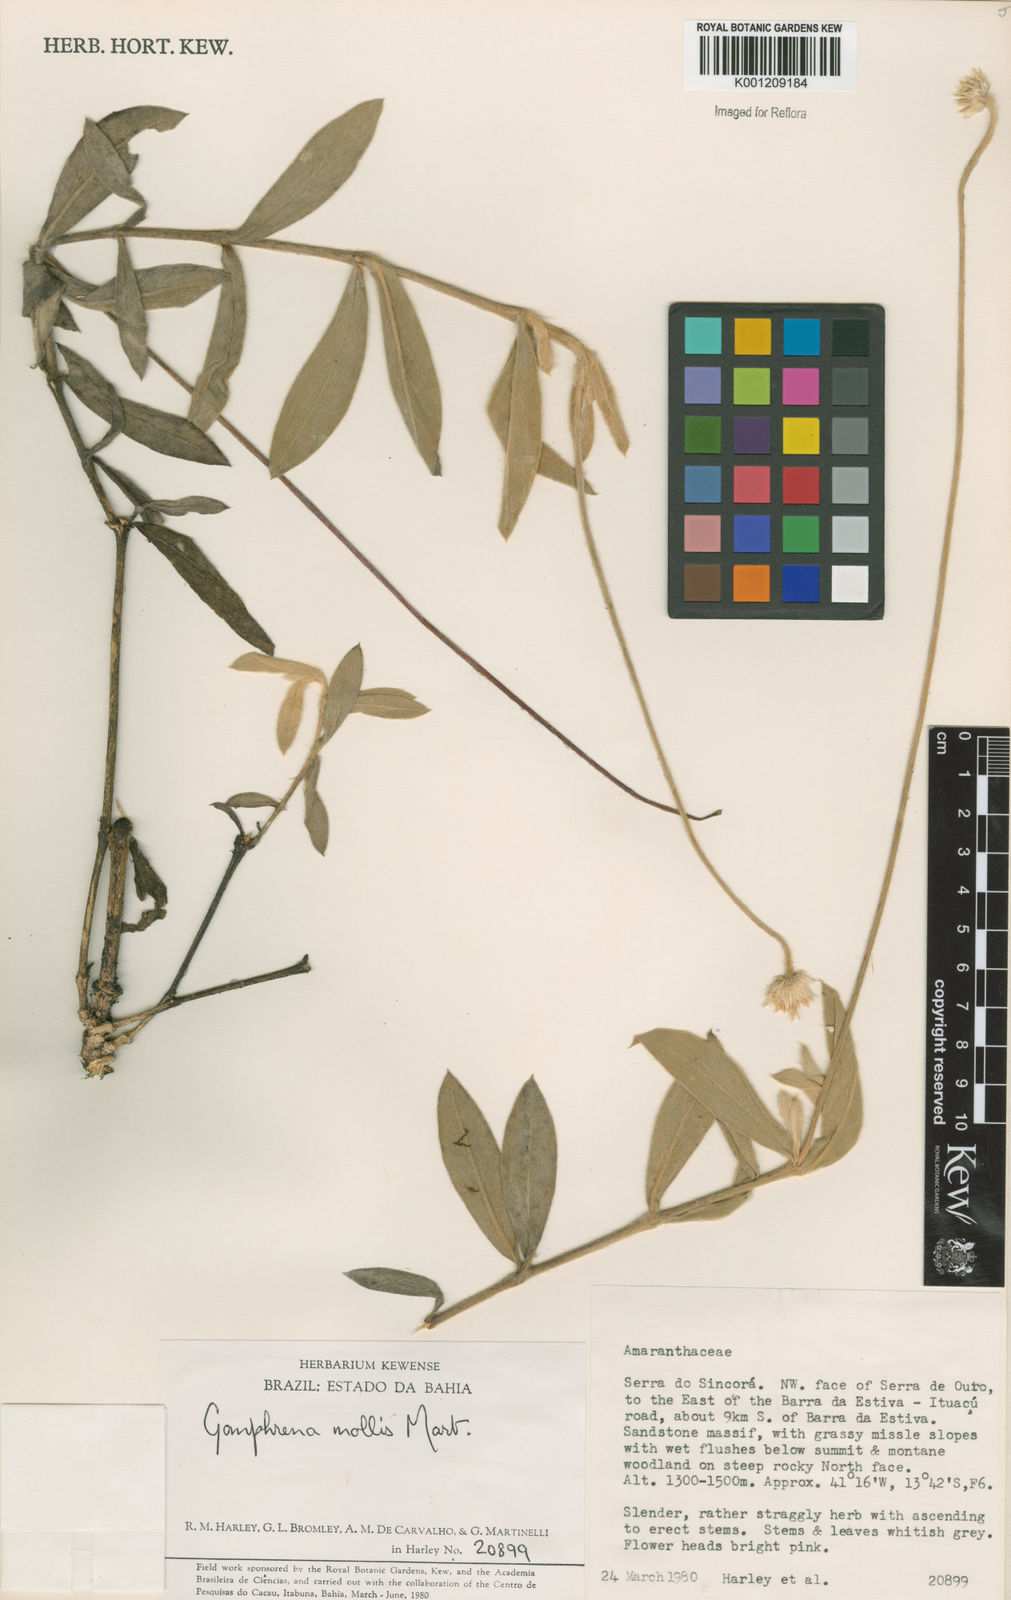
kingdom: Plantae
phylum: Tracheophyta
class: Magnoliopsida
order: Caryophyllales
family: Amaranthaceae
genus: Gomphrena
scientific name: Gomphrena mollis
